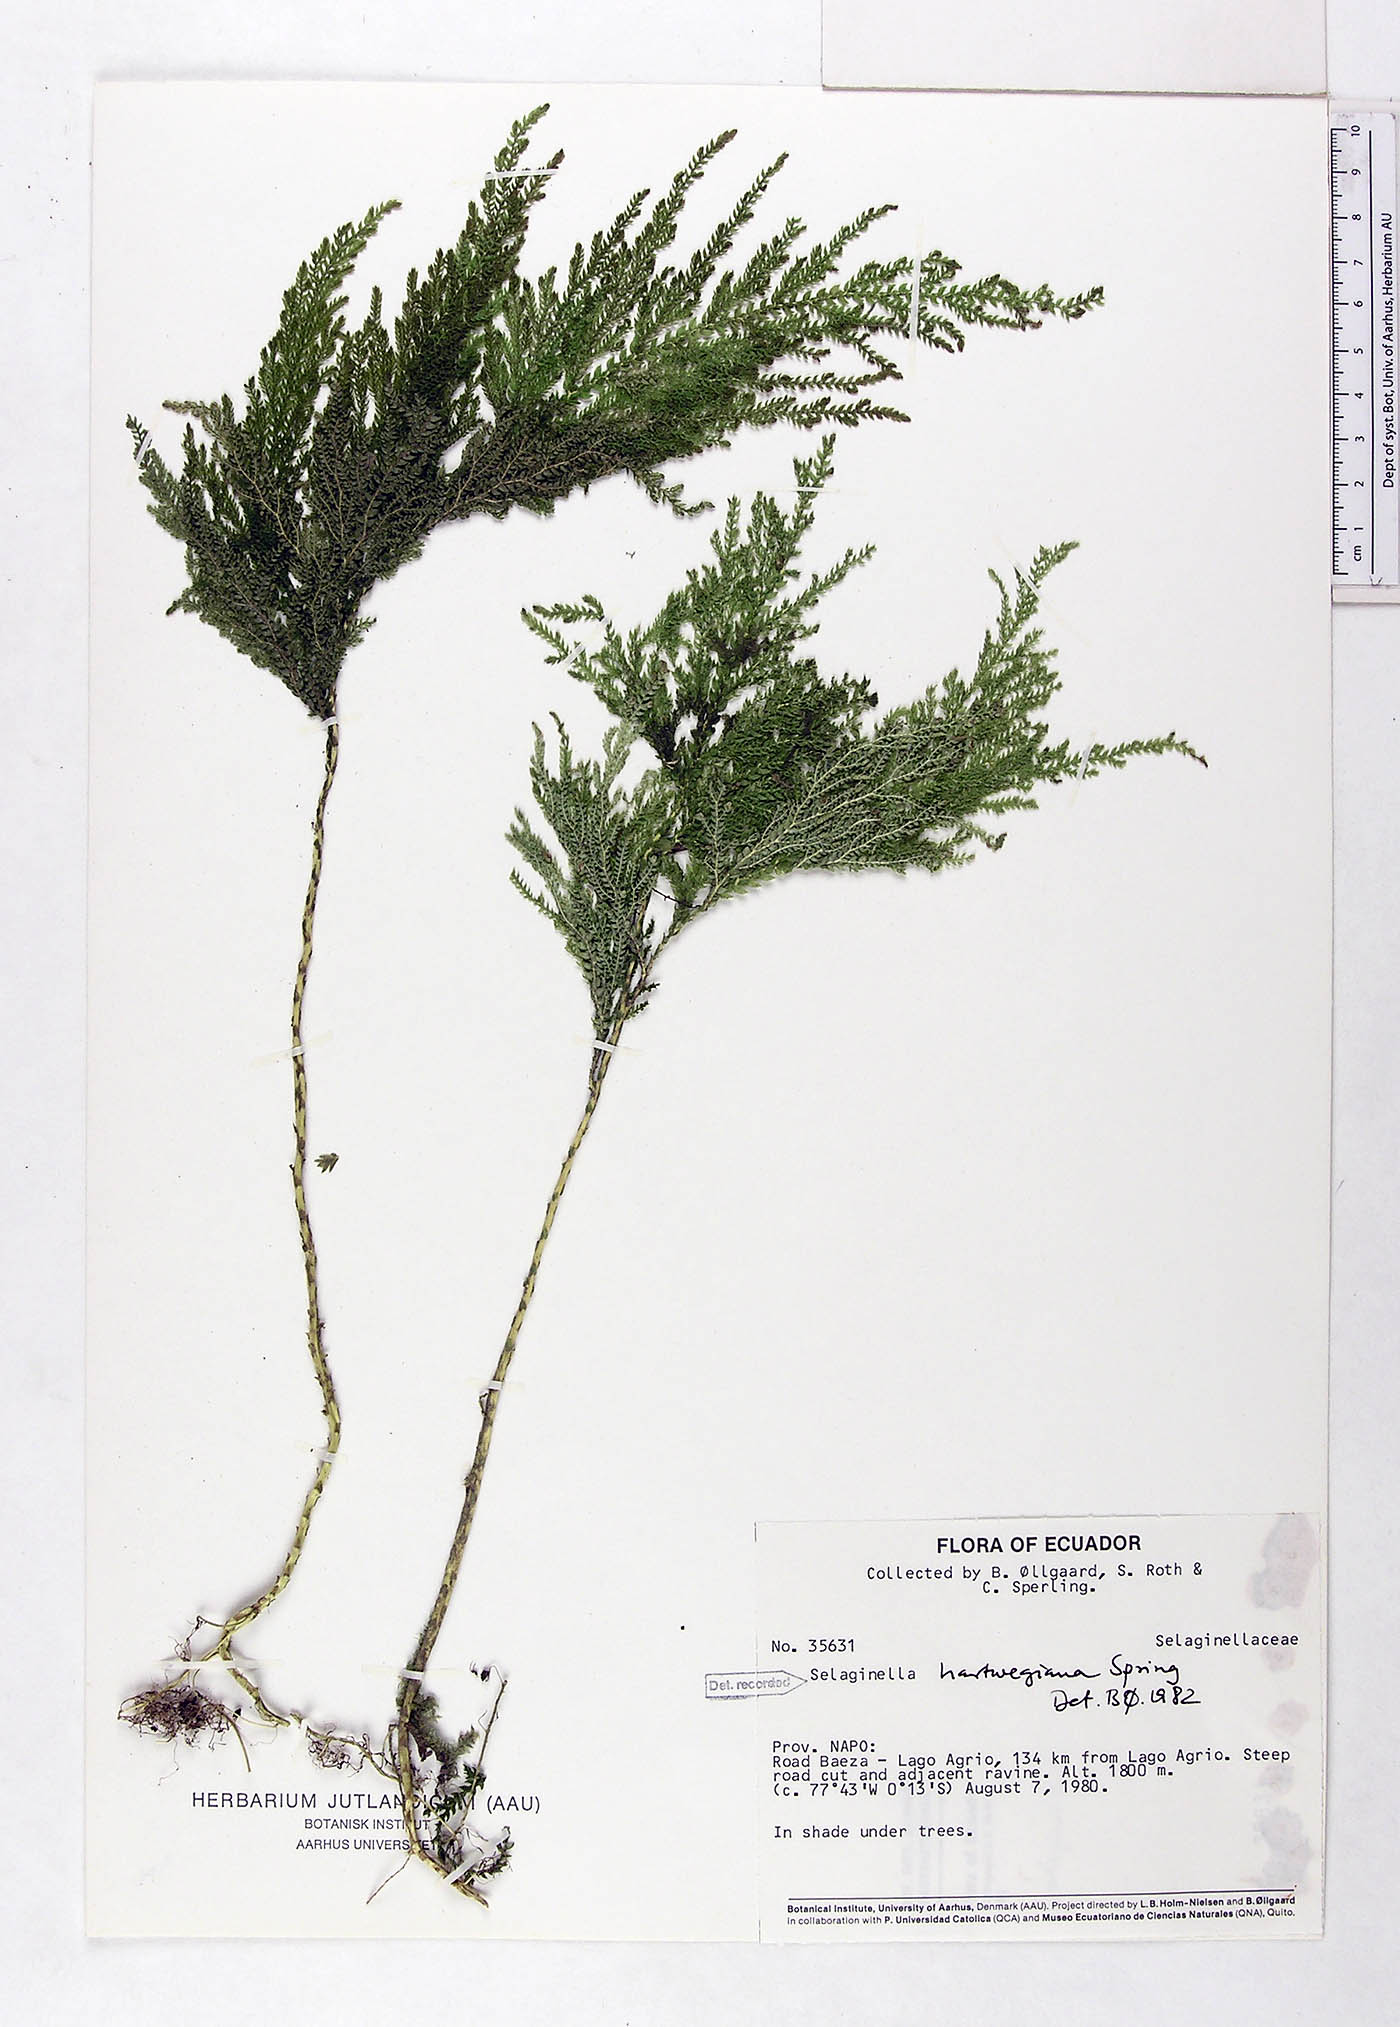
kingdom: Plantae
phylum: Tracheophyta
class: Lycopodiopsida
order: Selaginellales
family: Selaginellaceae
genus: Selaginella
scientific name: Selaginella hartwegiana
